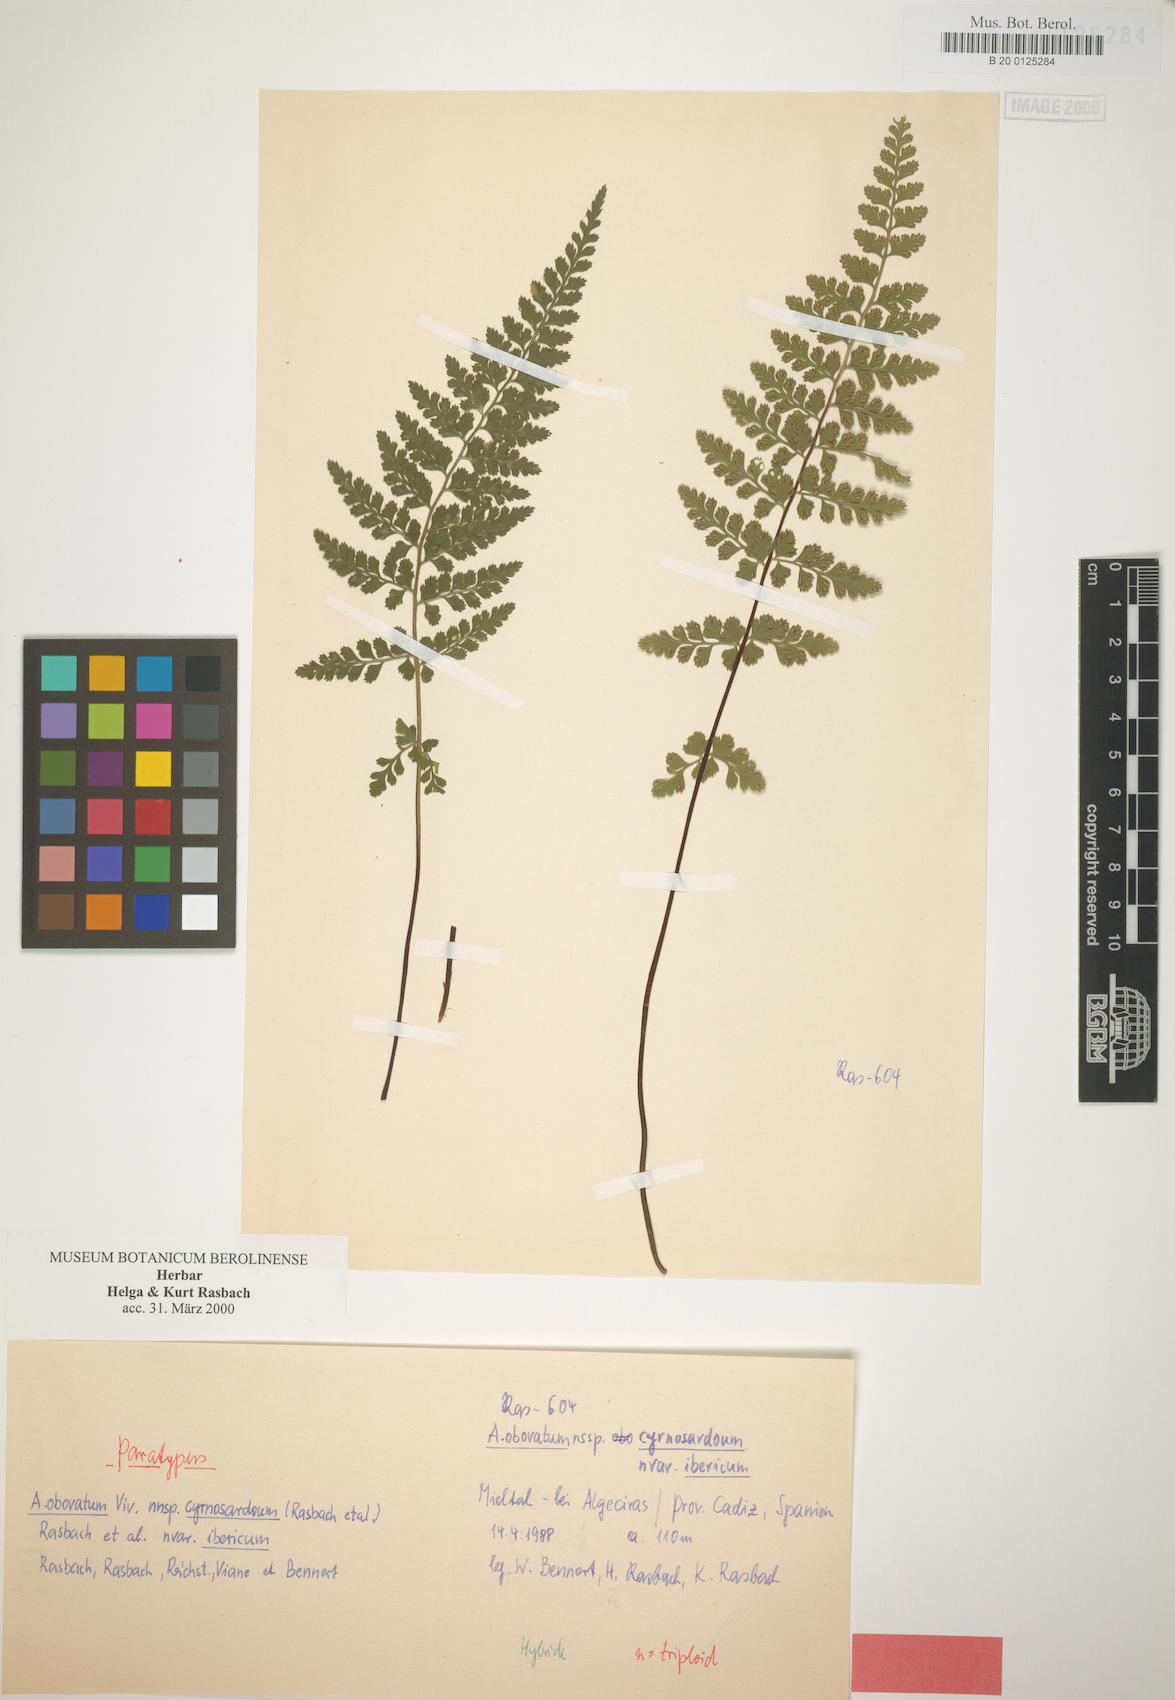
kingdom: Plantae
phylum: Tracheophyta
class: Polypodiopsida
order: Polypodiales
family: Aspleniaceae
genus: Asplenium
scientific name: Asplenium obovatum
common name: Lanceolate spleenwort
